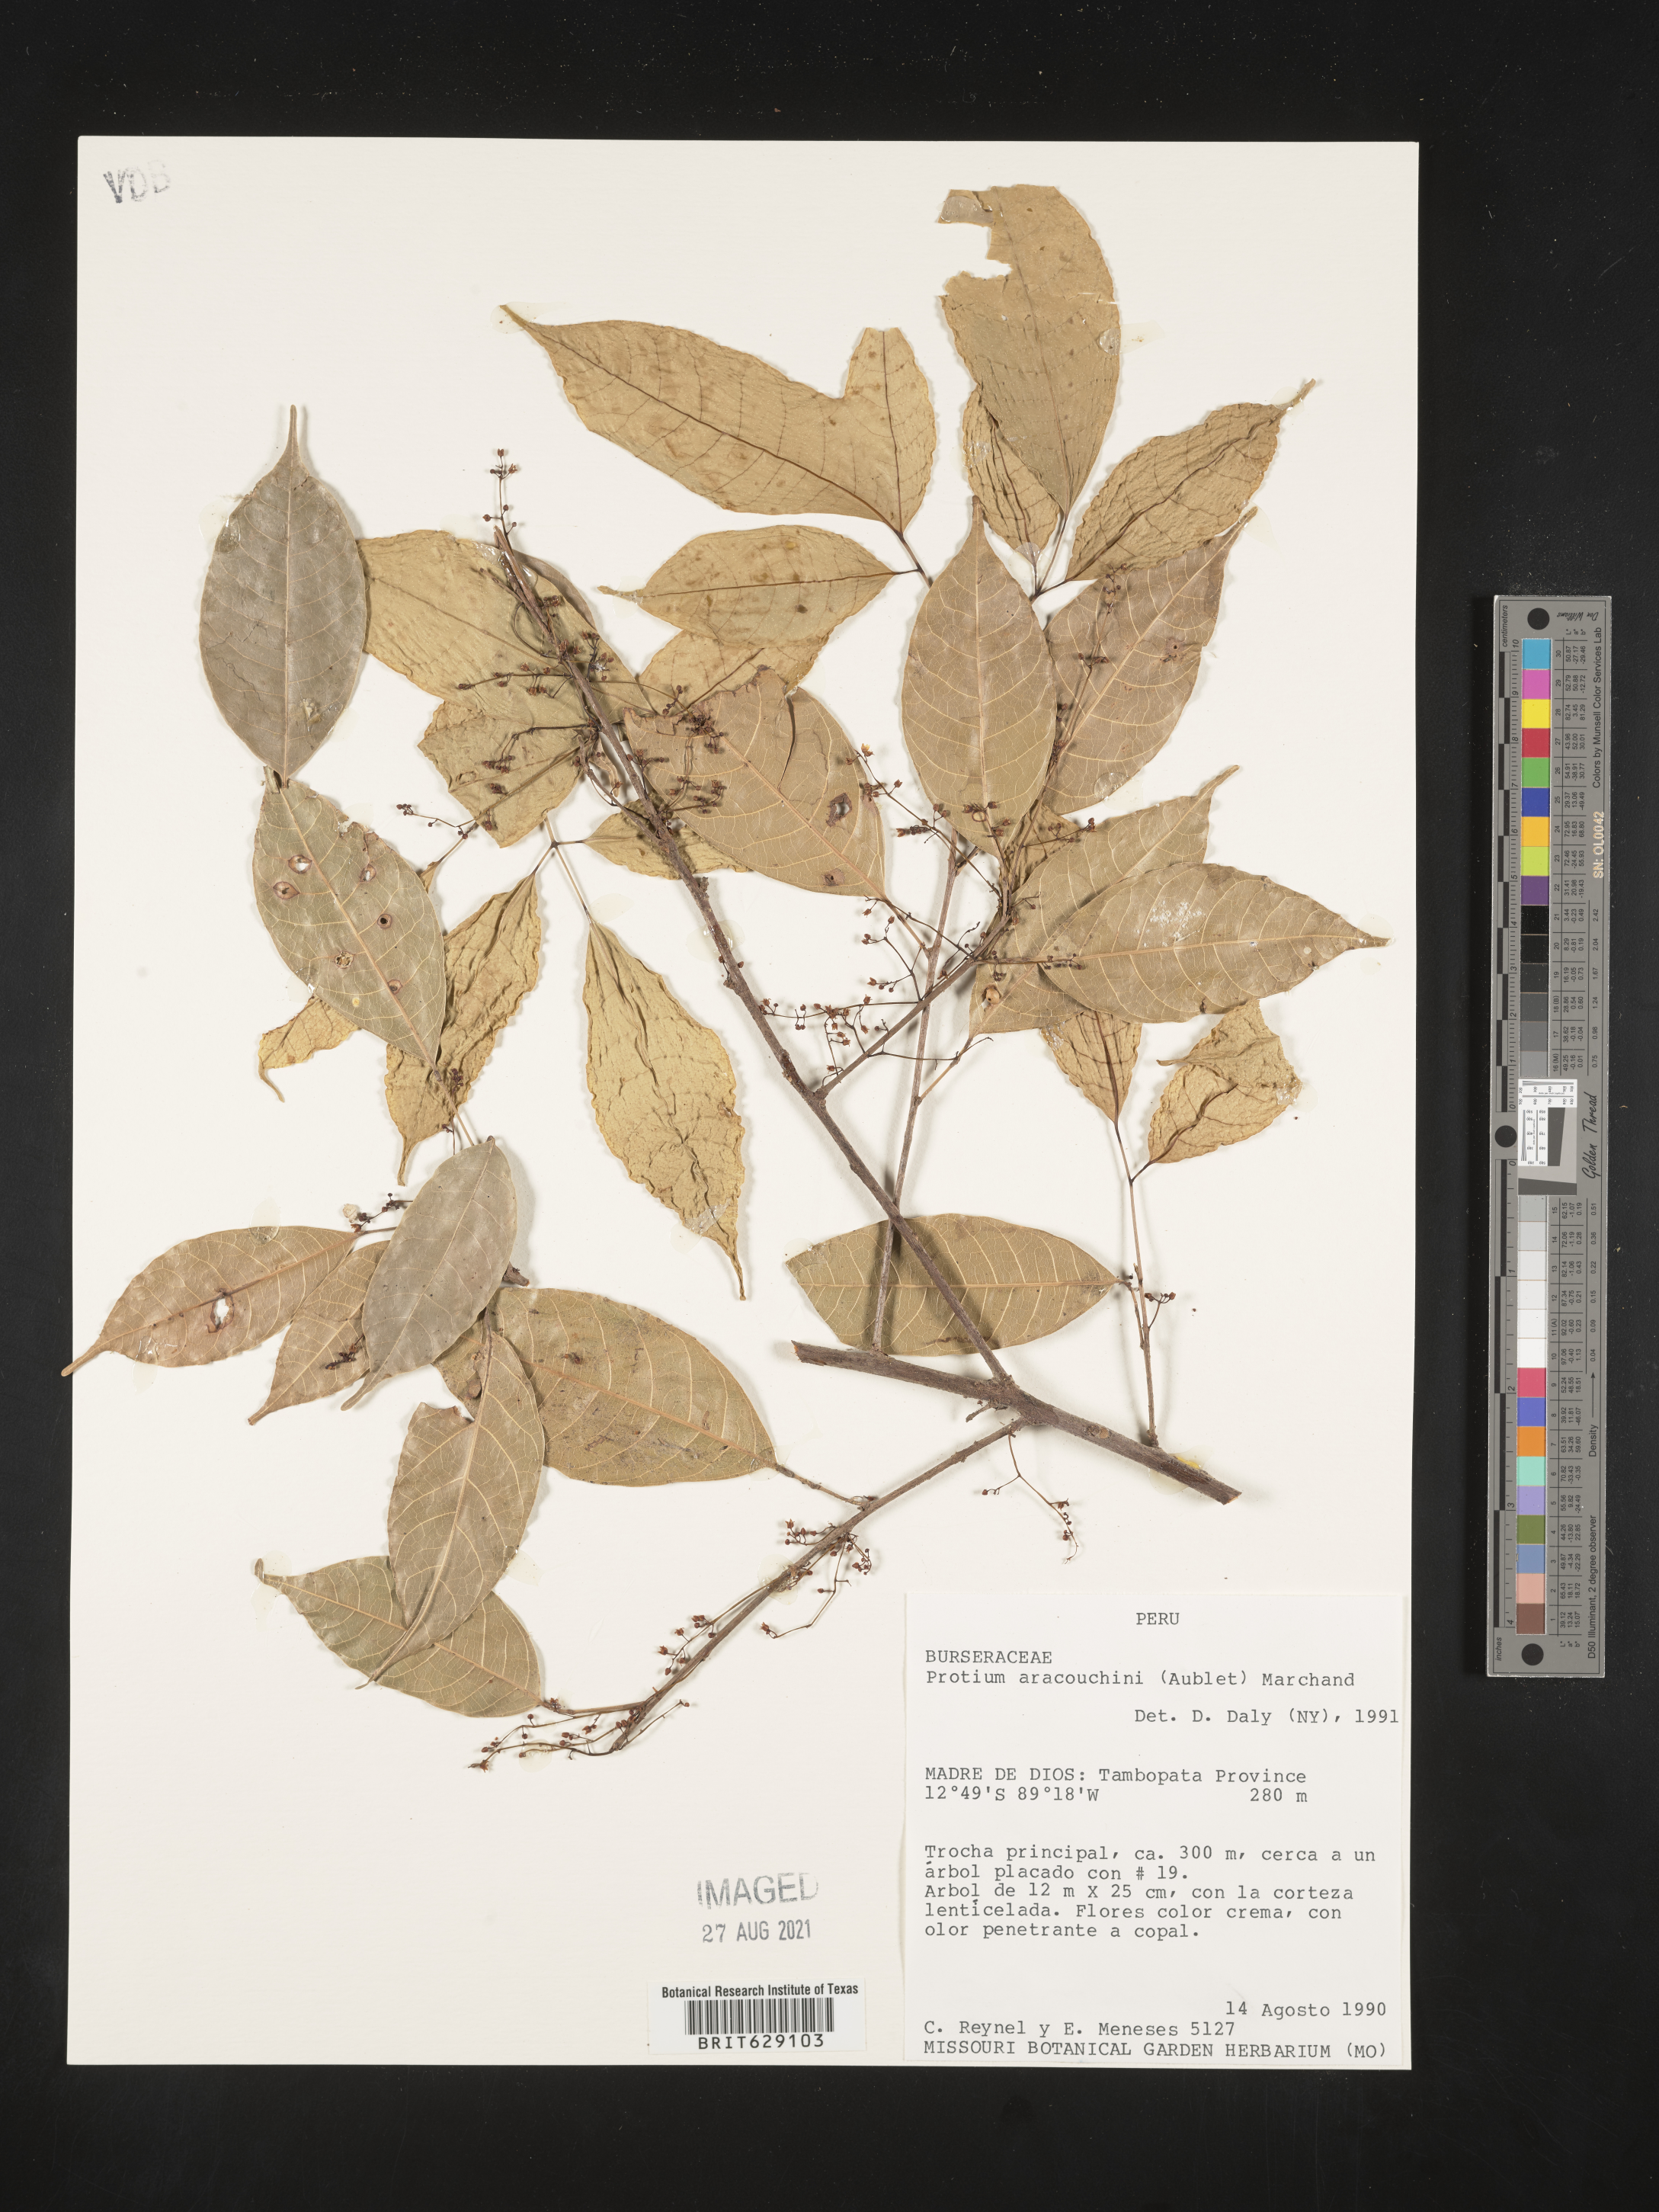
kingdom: Plantae
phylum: Tracheophyta
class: Magnoliopsida
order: Sapindales
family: Burseraceae
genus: Protium
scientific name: Protium aracouchini
